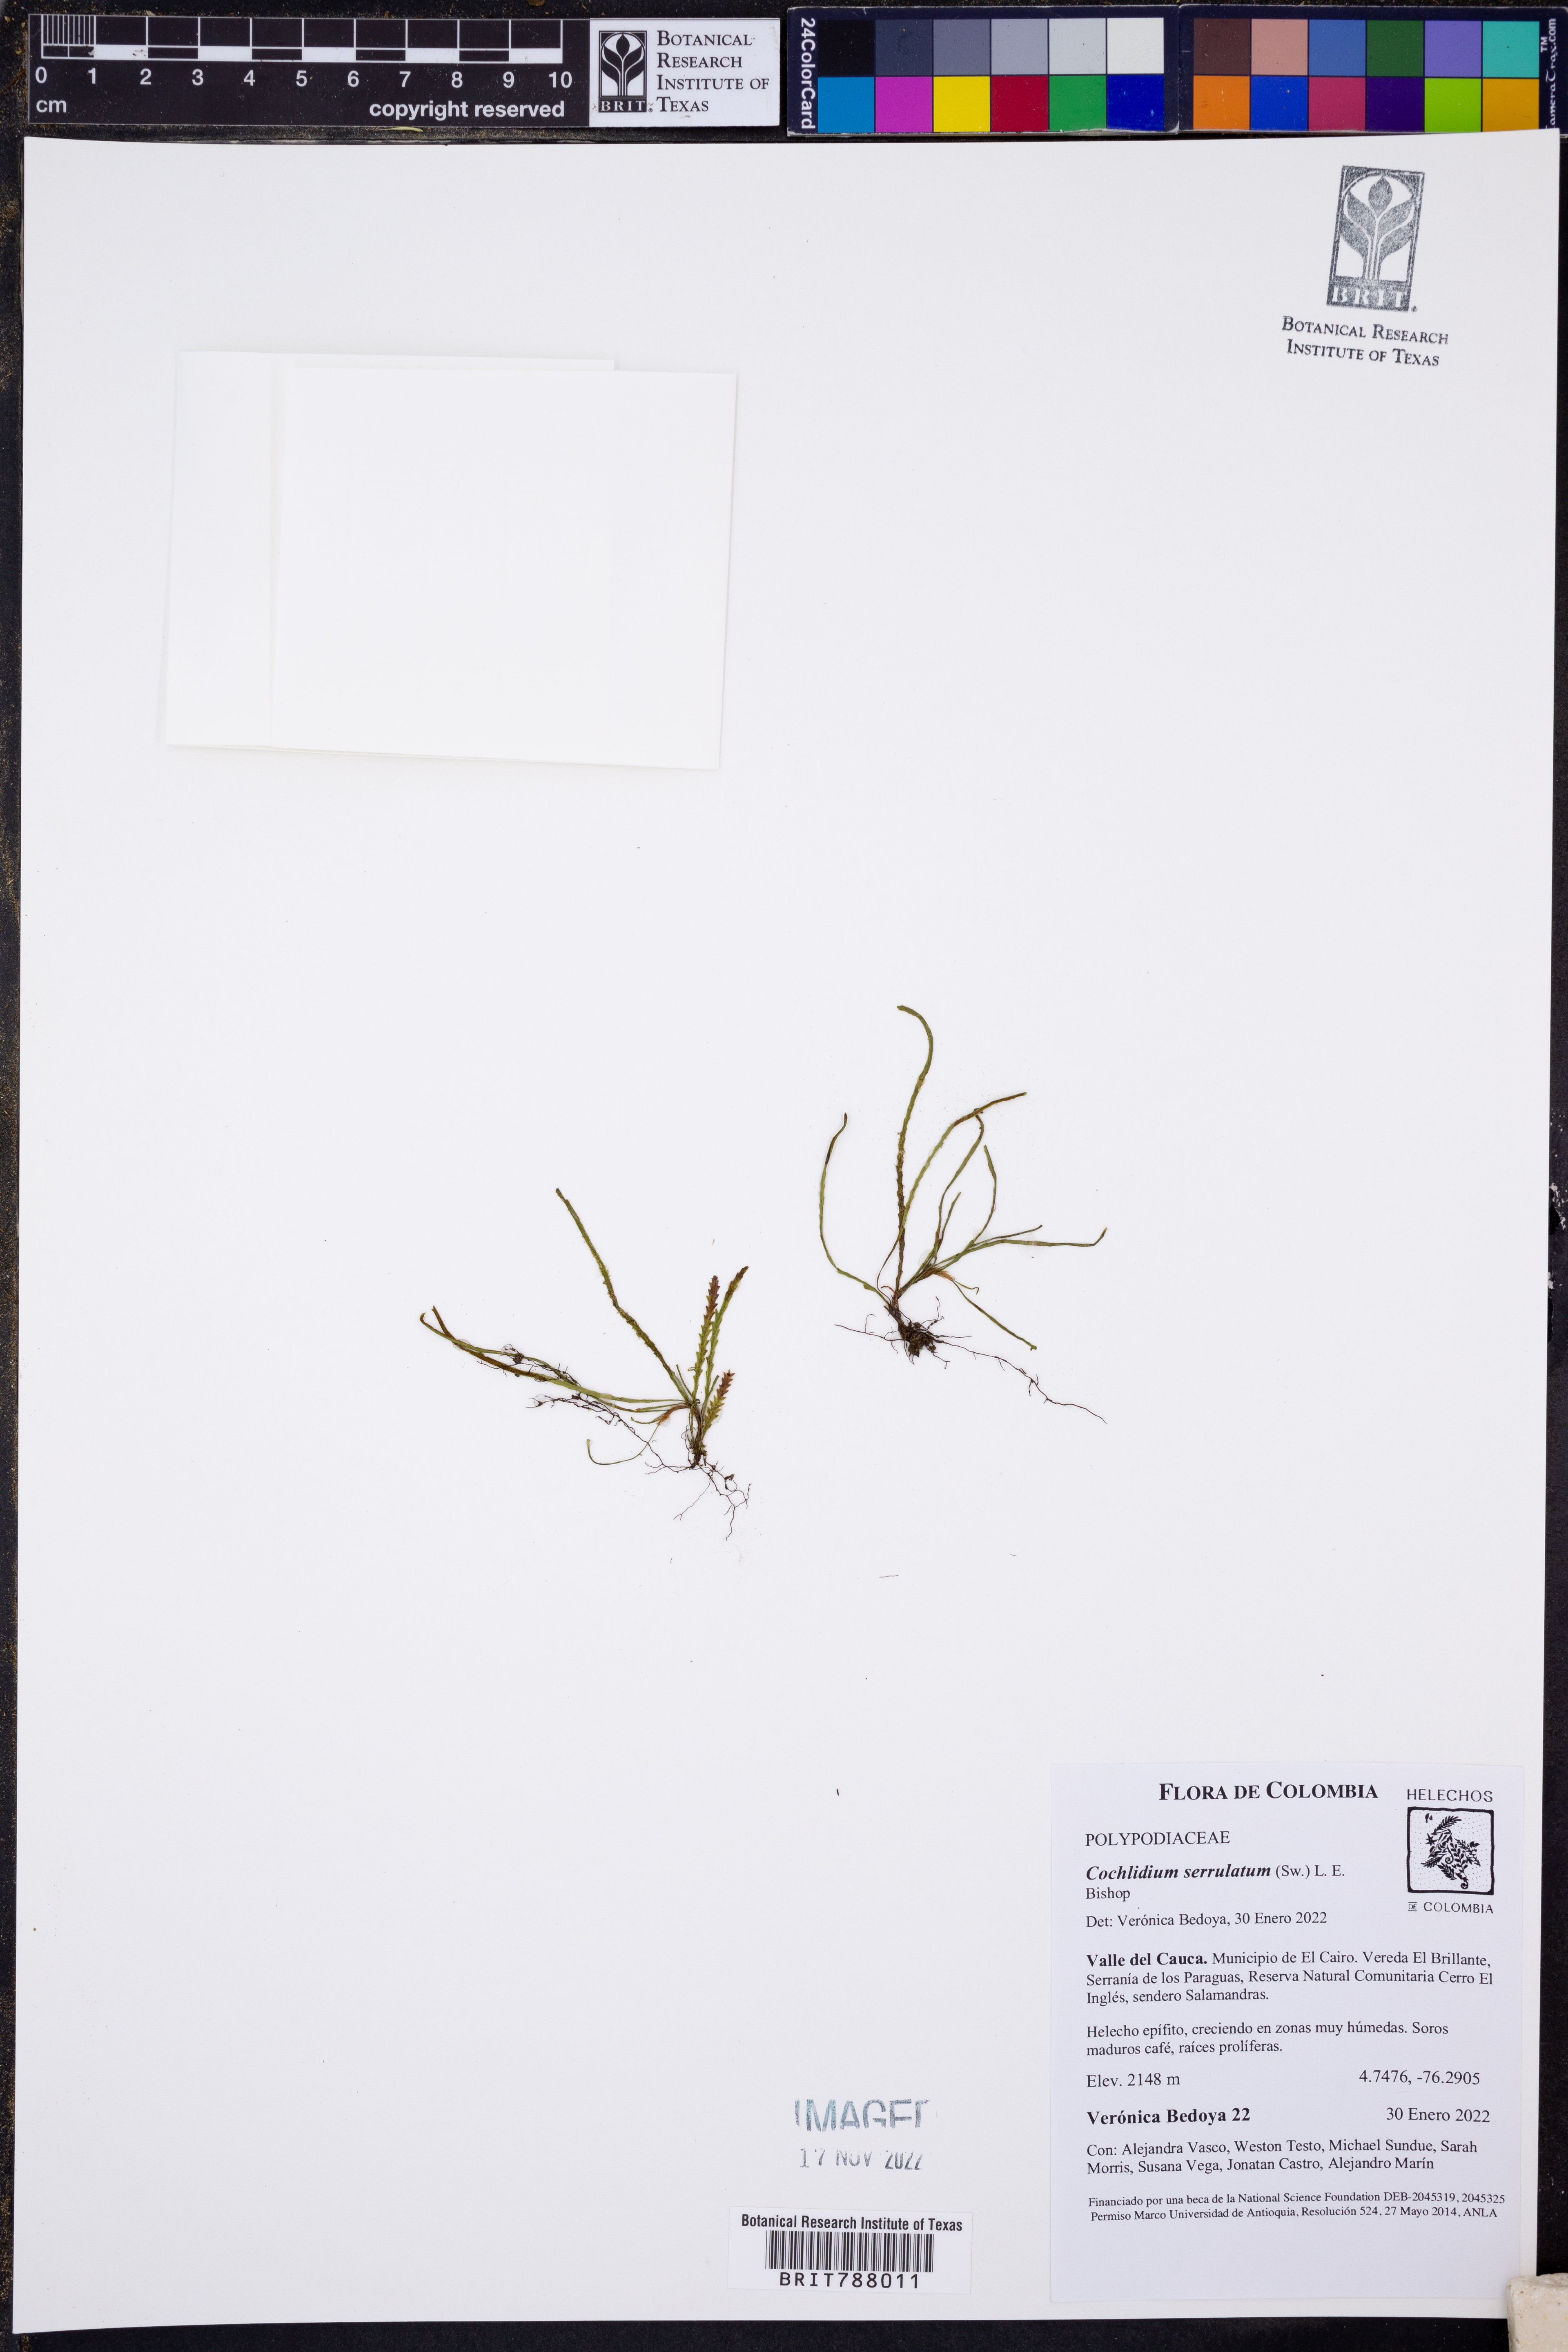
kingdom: Plantae
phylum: Tracheophyta
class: Polypodiopsida
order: Polypodiales
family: Polypodiaceae
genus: Cochlidium
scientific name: Cochlidium serrulatum
